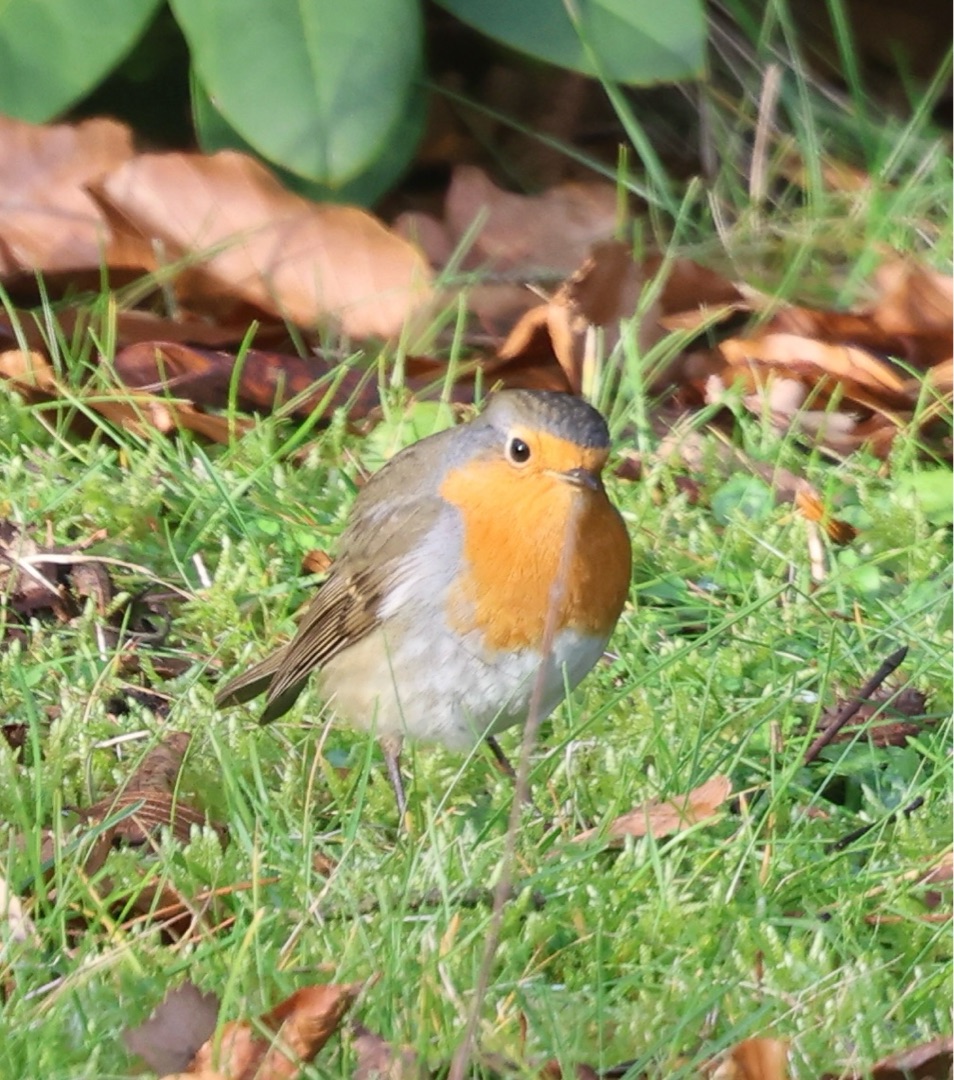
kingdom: Animalia
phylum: Chordata
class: Aves
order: Passeriformes
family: Muscicapidae
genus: Erithacus
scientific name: Erithacus rubecula
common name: Rødhals/rødkælk
